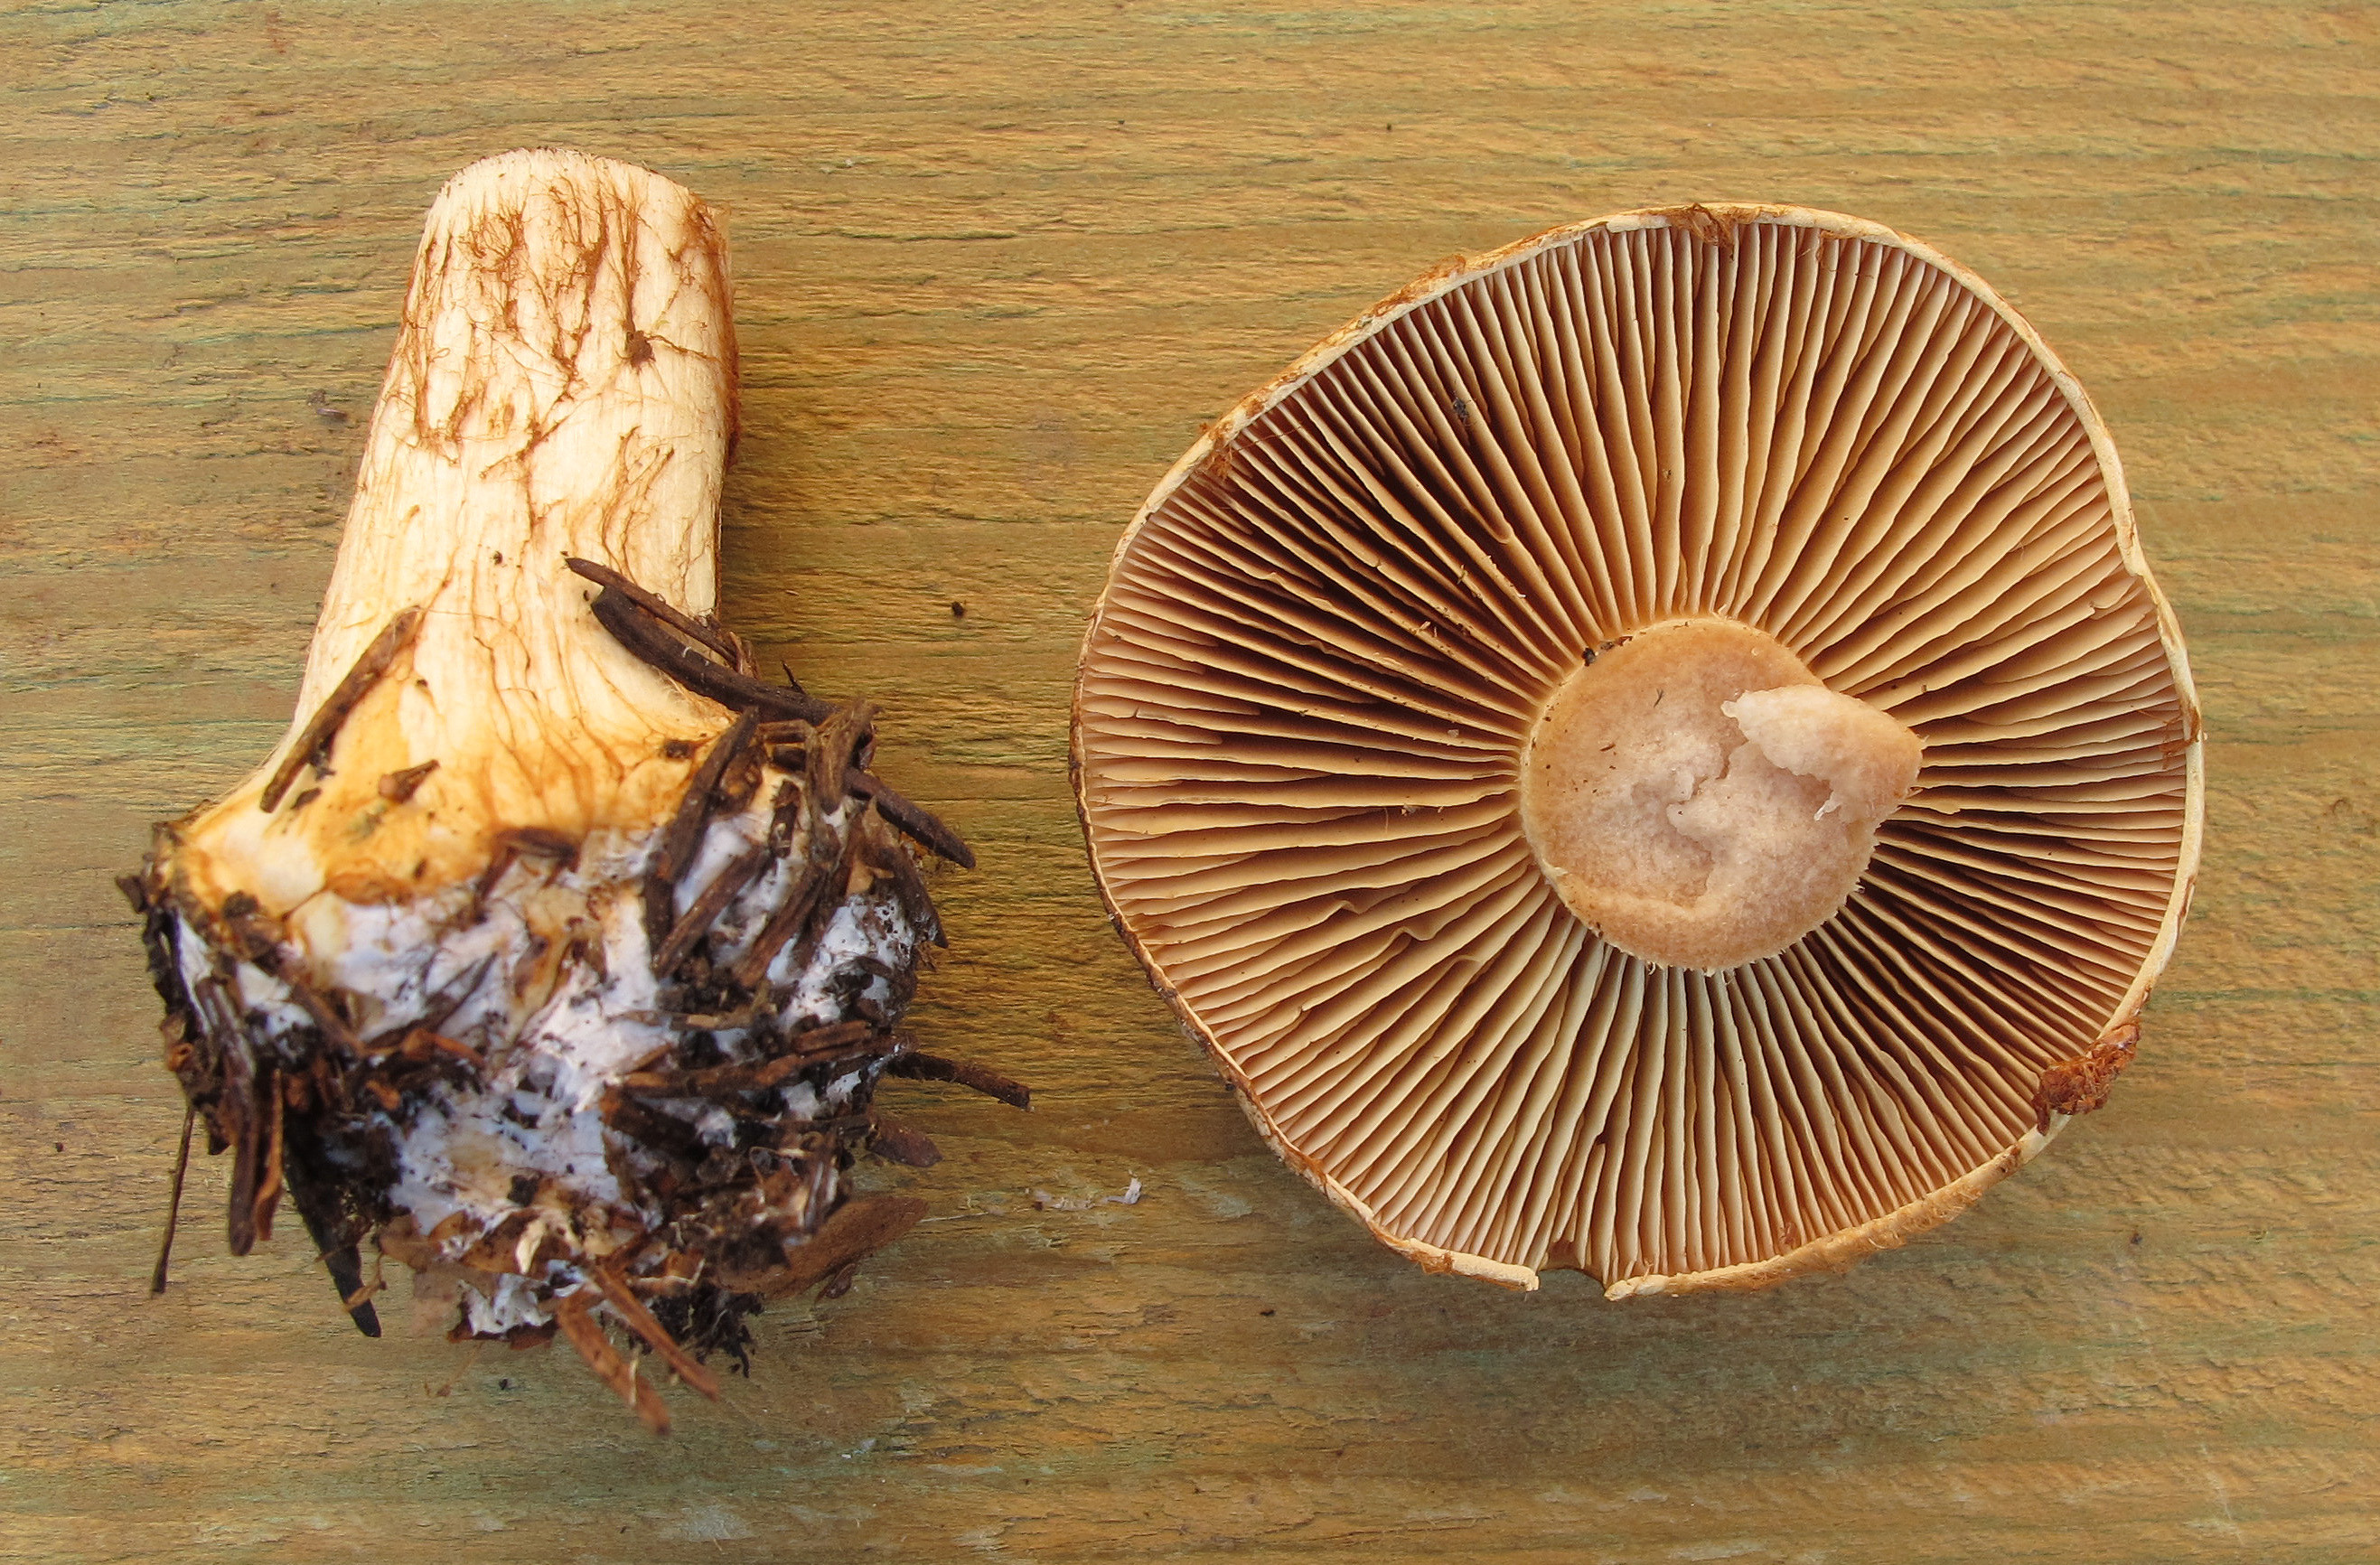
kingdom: Fungi
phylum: Basidiomycota
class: Agaricomycetes
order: Agaricales
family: Cortinariaceae
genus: Calonarius
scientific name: Calonarius sulfurinus
